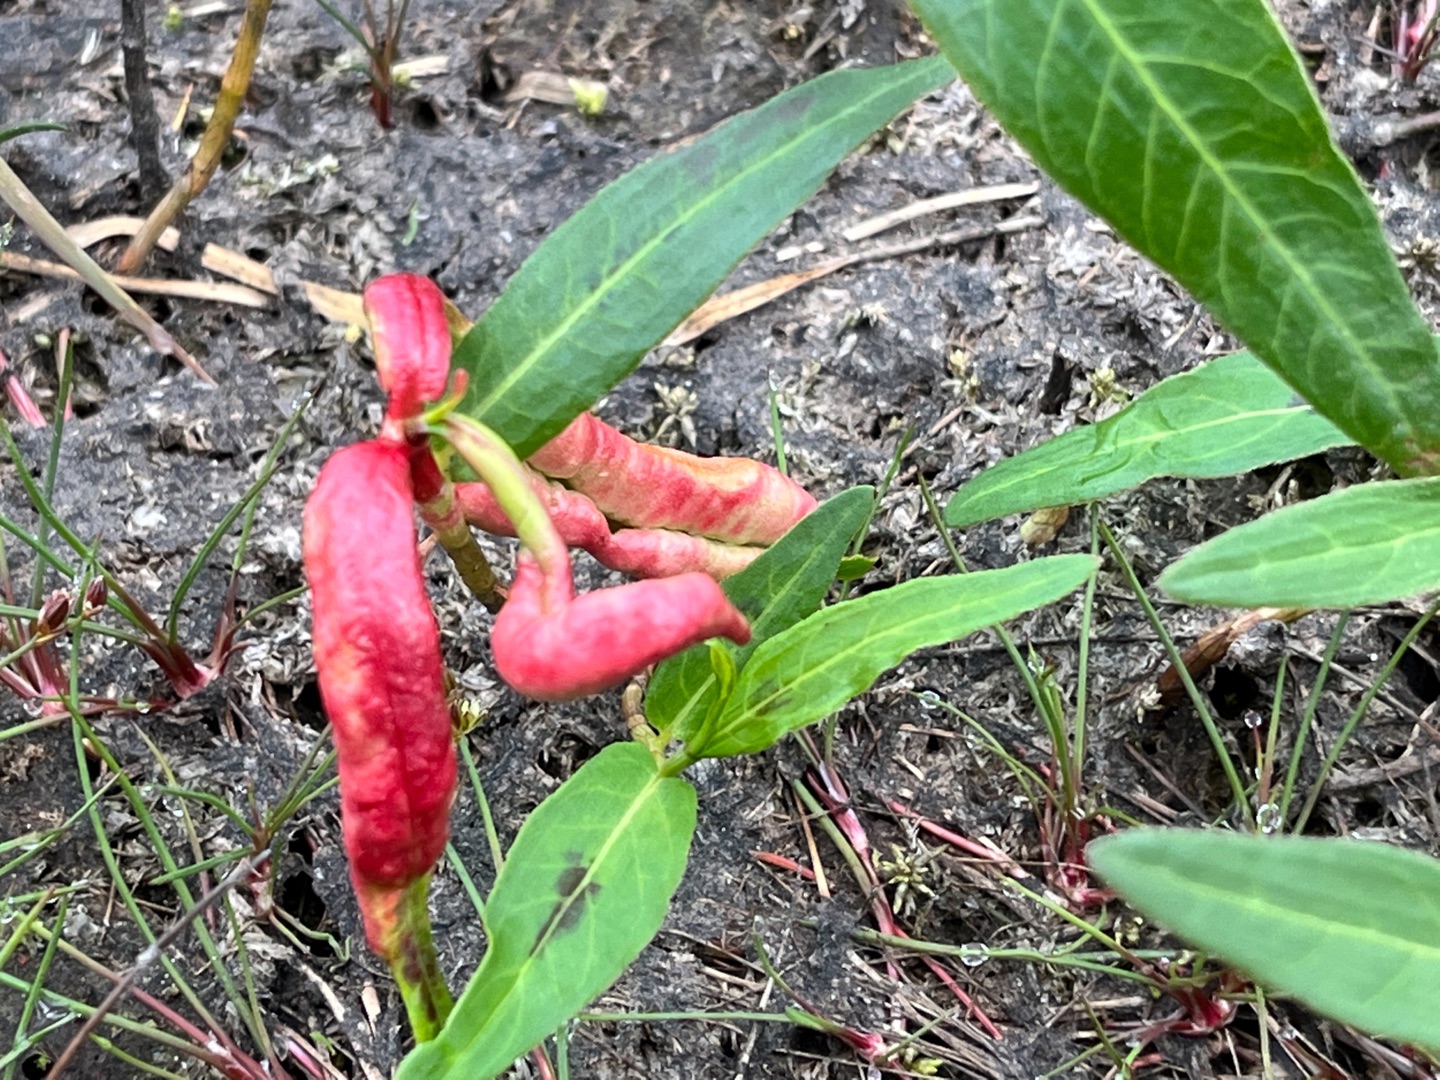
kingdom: Animalia
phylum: Arthropoda
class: Insecta
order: Diptera
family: Cecidomyiidae
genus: Wachtliella
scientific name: Wachtliella persicariae
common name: Pileurtgalmyg
